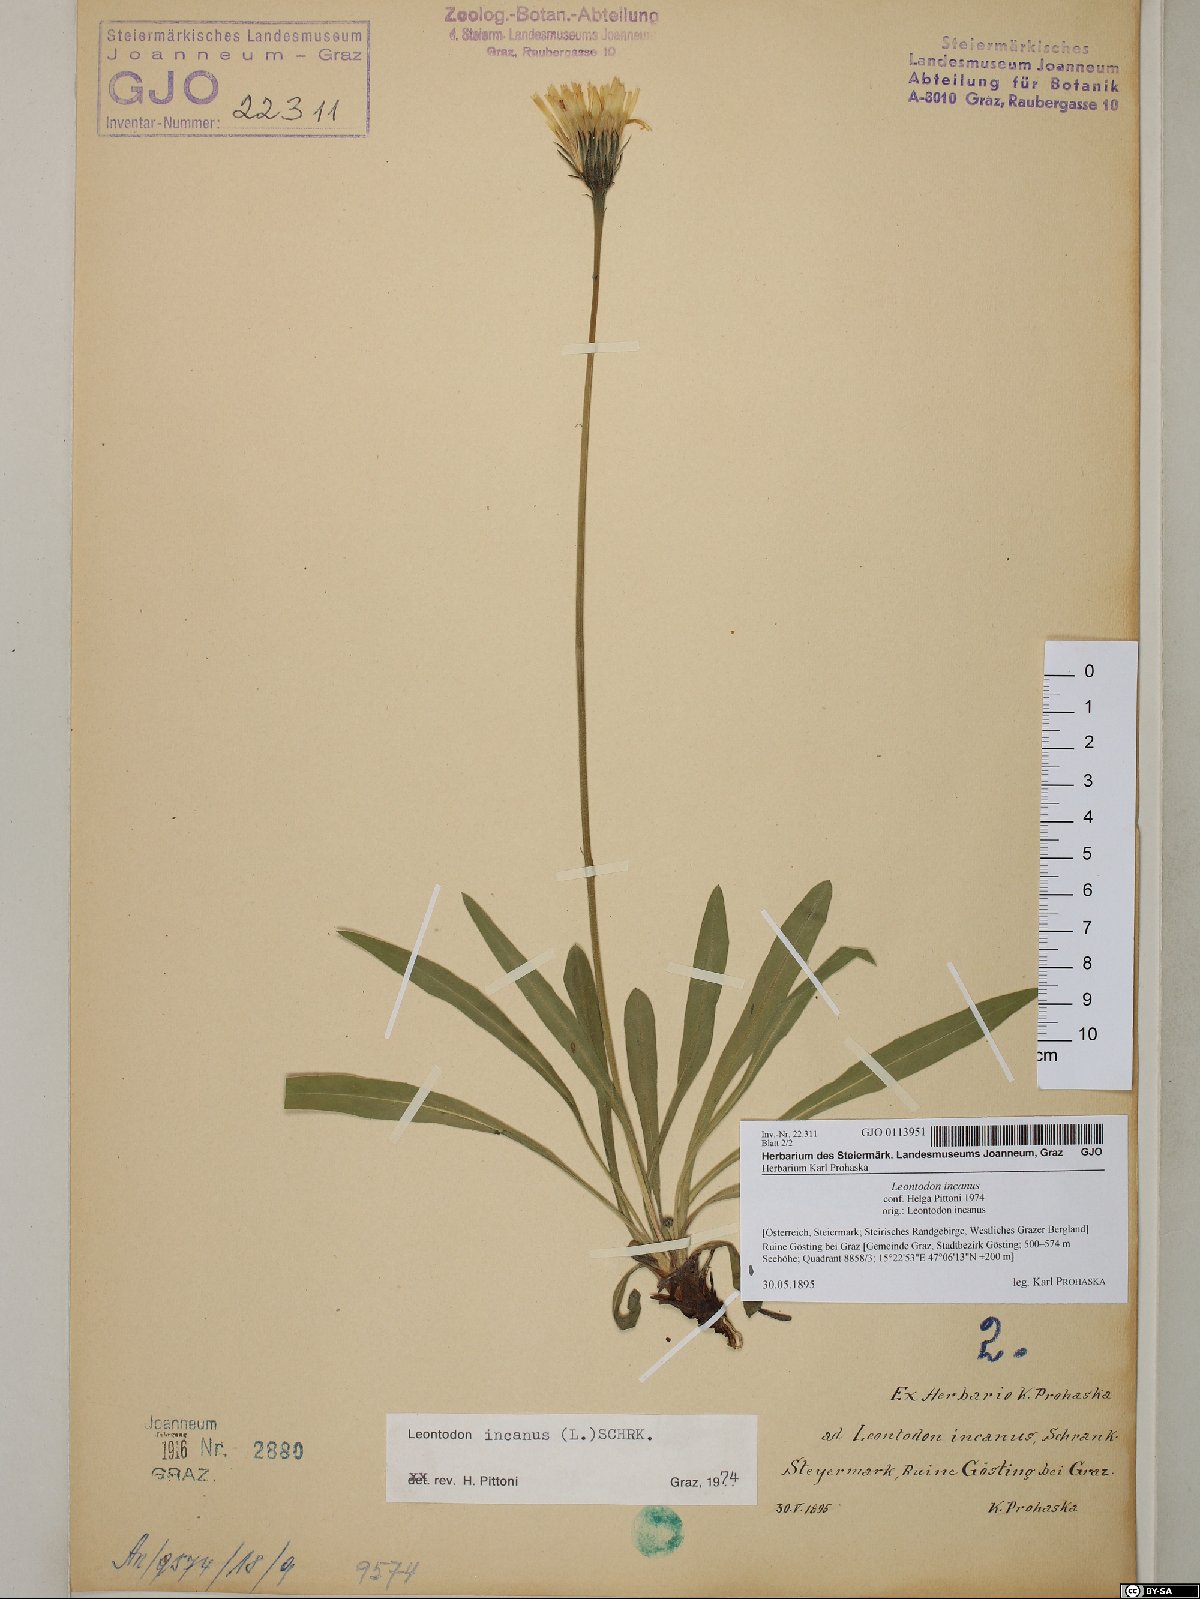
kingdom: Plantae
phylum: Tracheophyta
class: Magnoliopsida
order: Asterales
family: Asteraceae
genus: Leontodon
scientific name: Leontodon incanus
